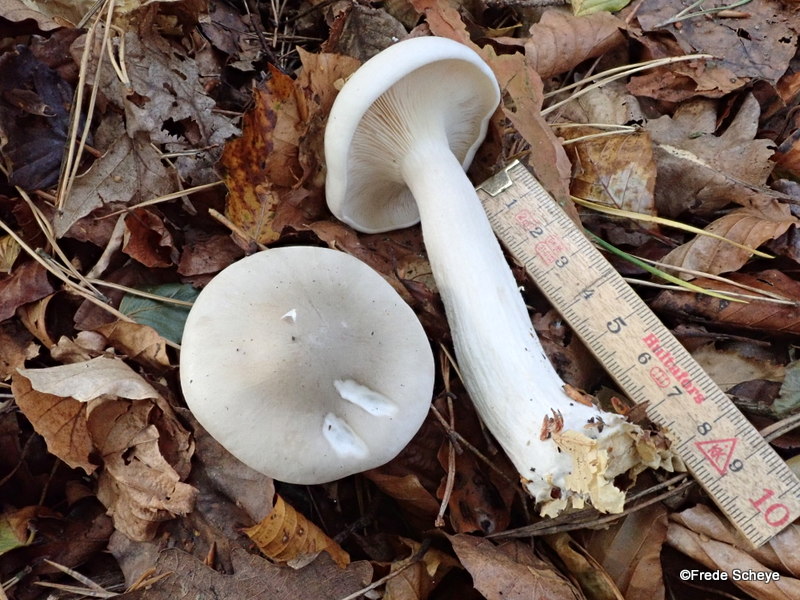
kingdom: Fungi
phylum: Basidiomycota
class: Agaricomycetes
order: Agaricales
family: Tricholomataceae
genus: Clitocybe
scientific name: Clitocybe nebularis
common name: tåge-tragthat
